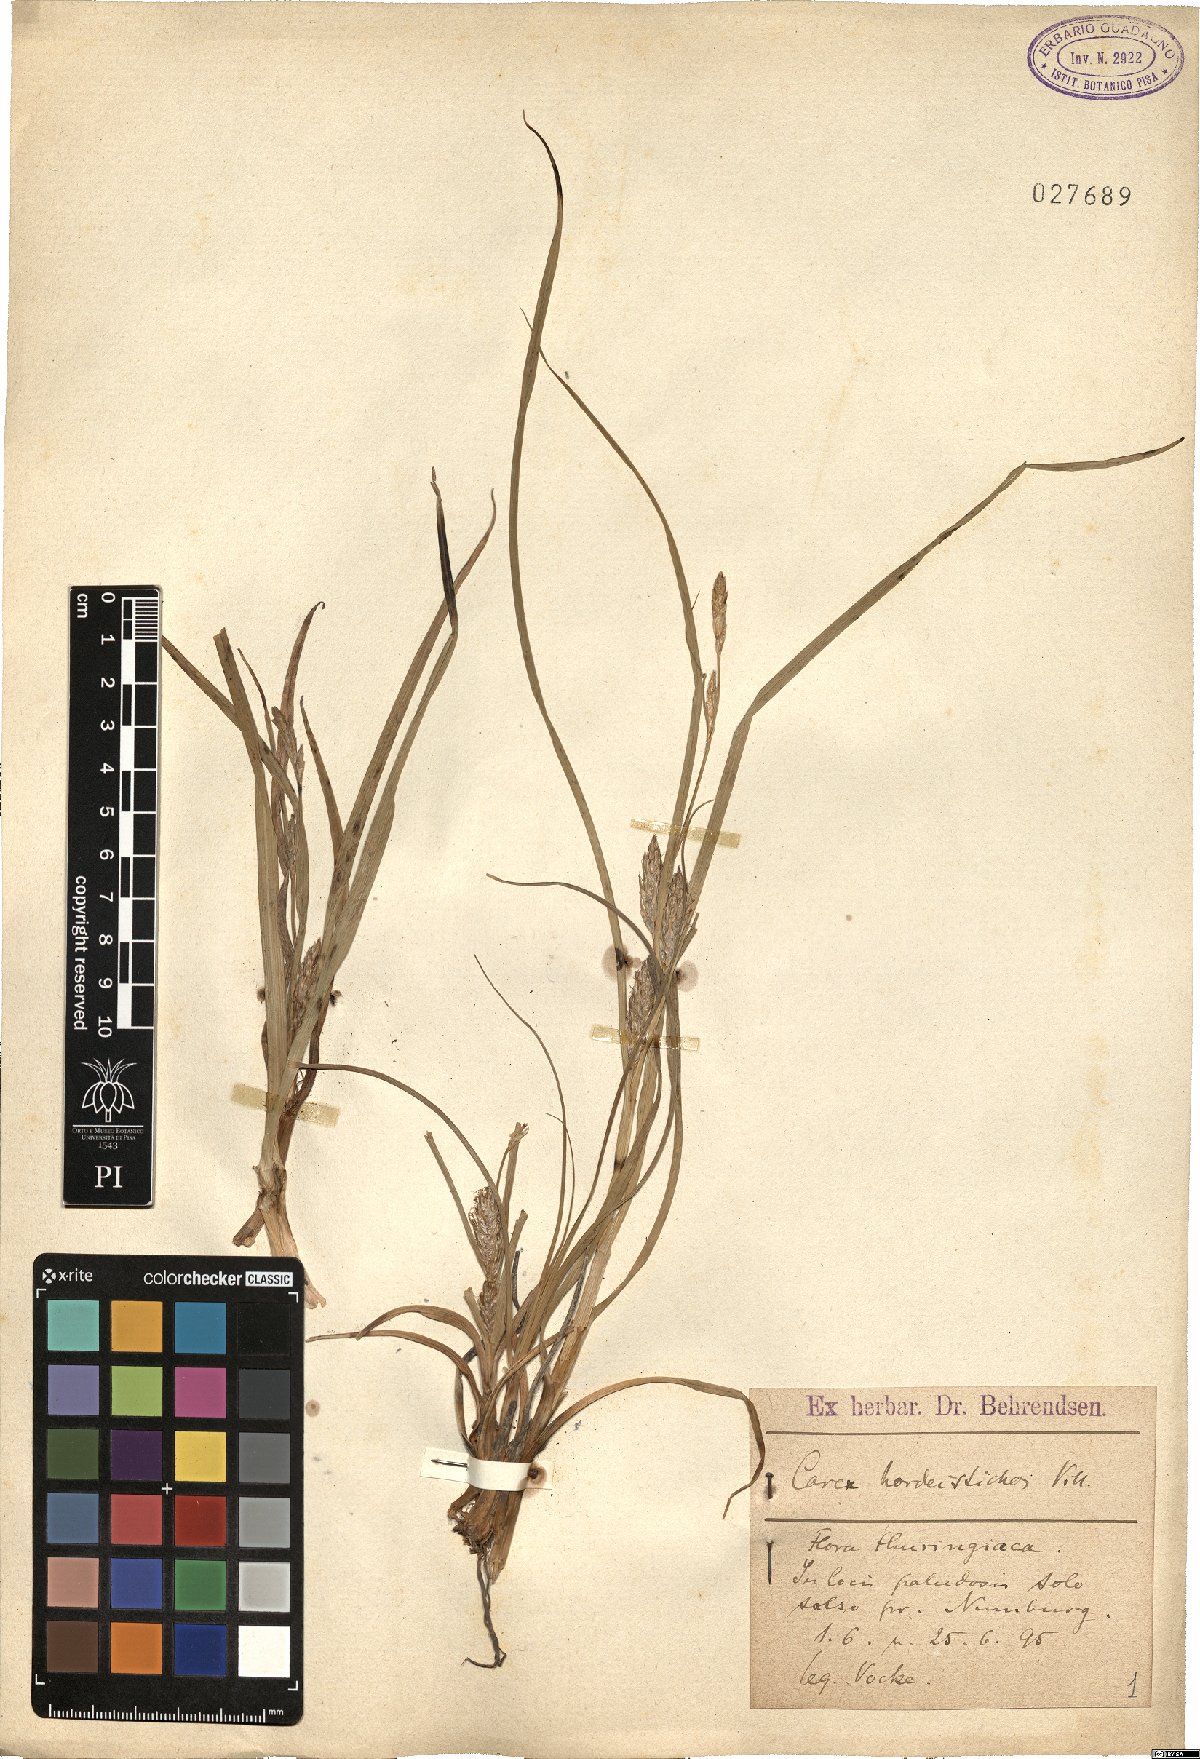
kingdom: Plantae
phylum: Tracheophyta
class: Liliopsida
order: Poales
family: Cyperaceae
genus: Carex
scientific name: Carex hordeistichos
